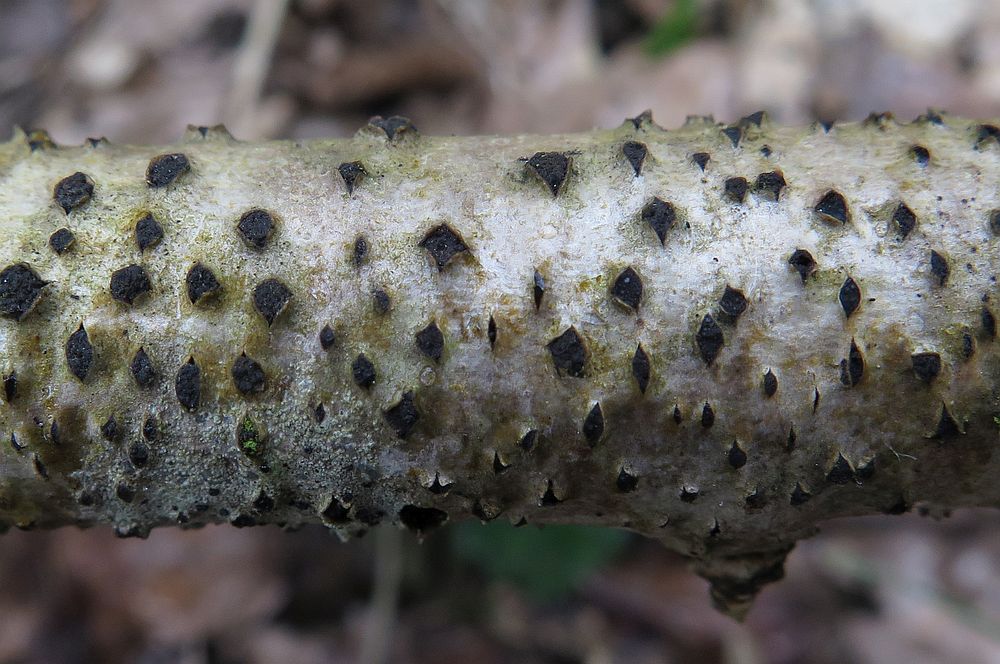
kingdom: Fungi
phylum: Ascomycota
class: Sordariomycetes
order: Xylariales
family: Diatrypaceae
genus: Diatrypella
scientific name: Diatrypella quercina
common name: ege-kulskorpe
